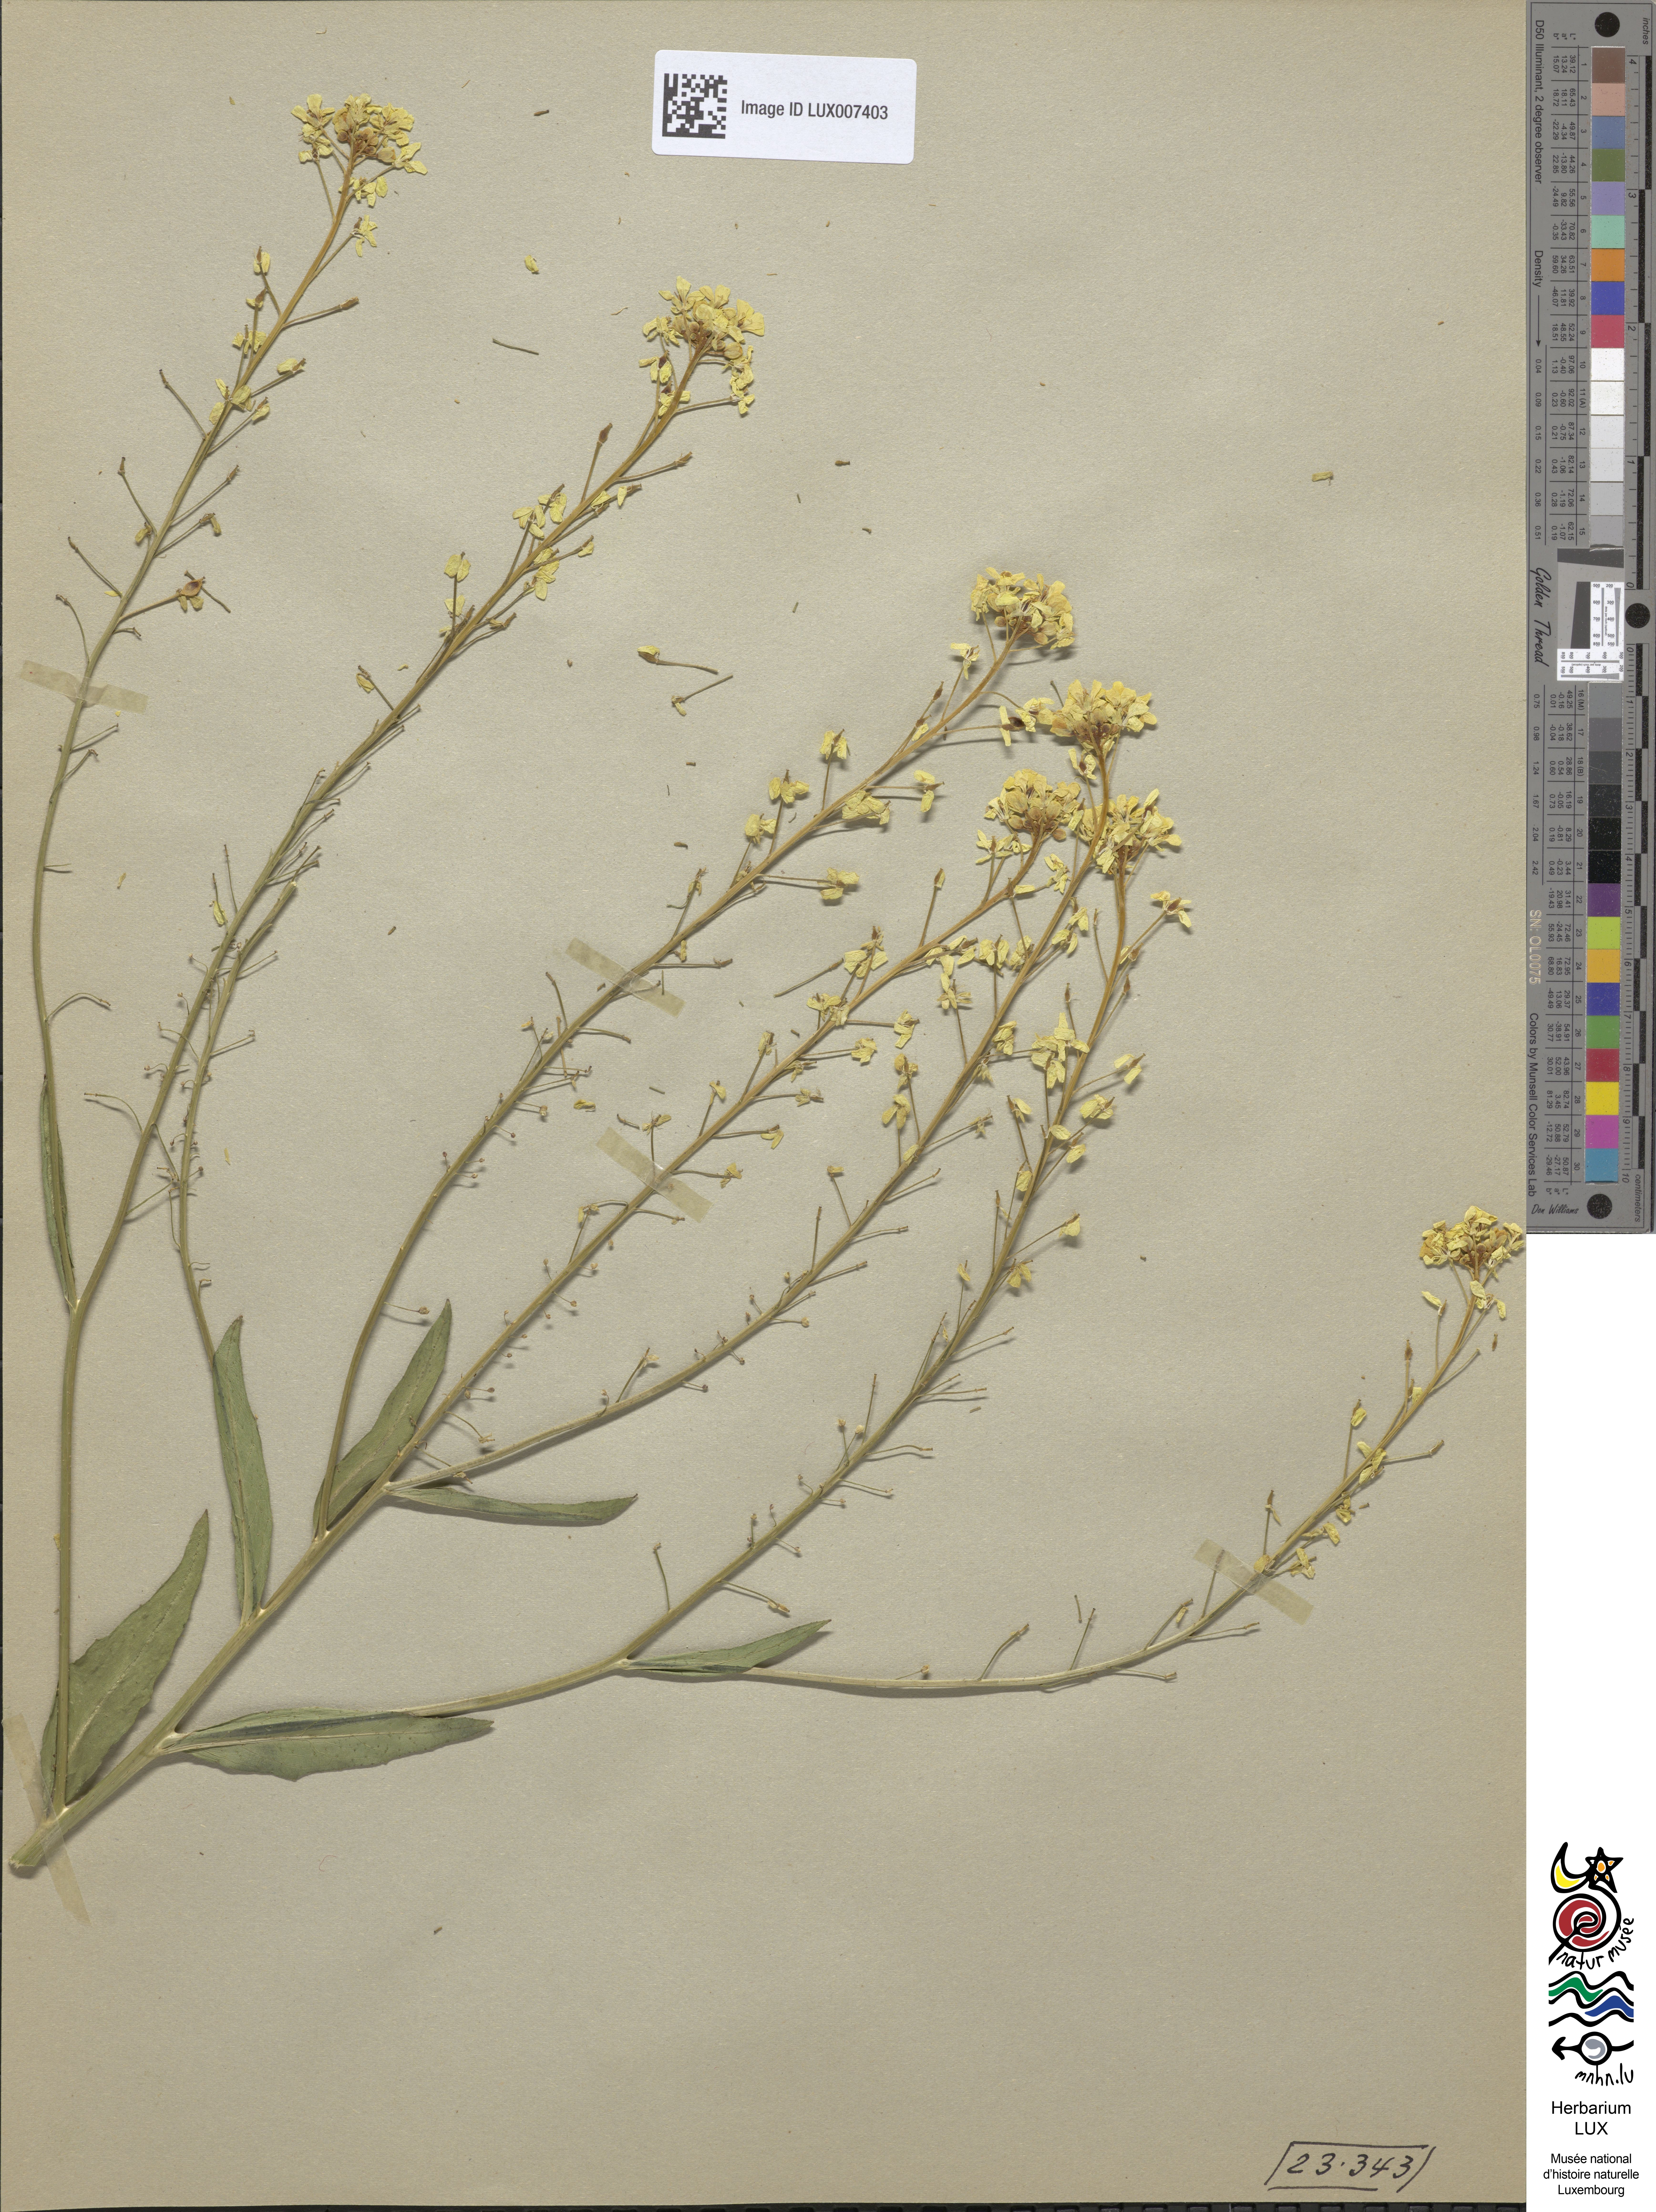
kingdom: Plantae
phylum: Tracheophyta
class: Magnoliopsida
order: Brassicales
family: Brassicaceae
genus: Bunias
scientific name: Bunias orientalis
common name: Warty-cabbage
